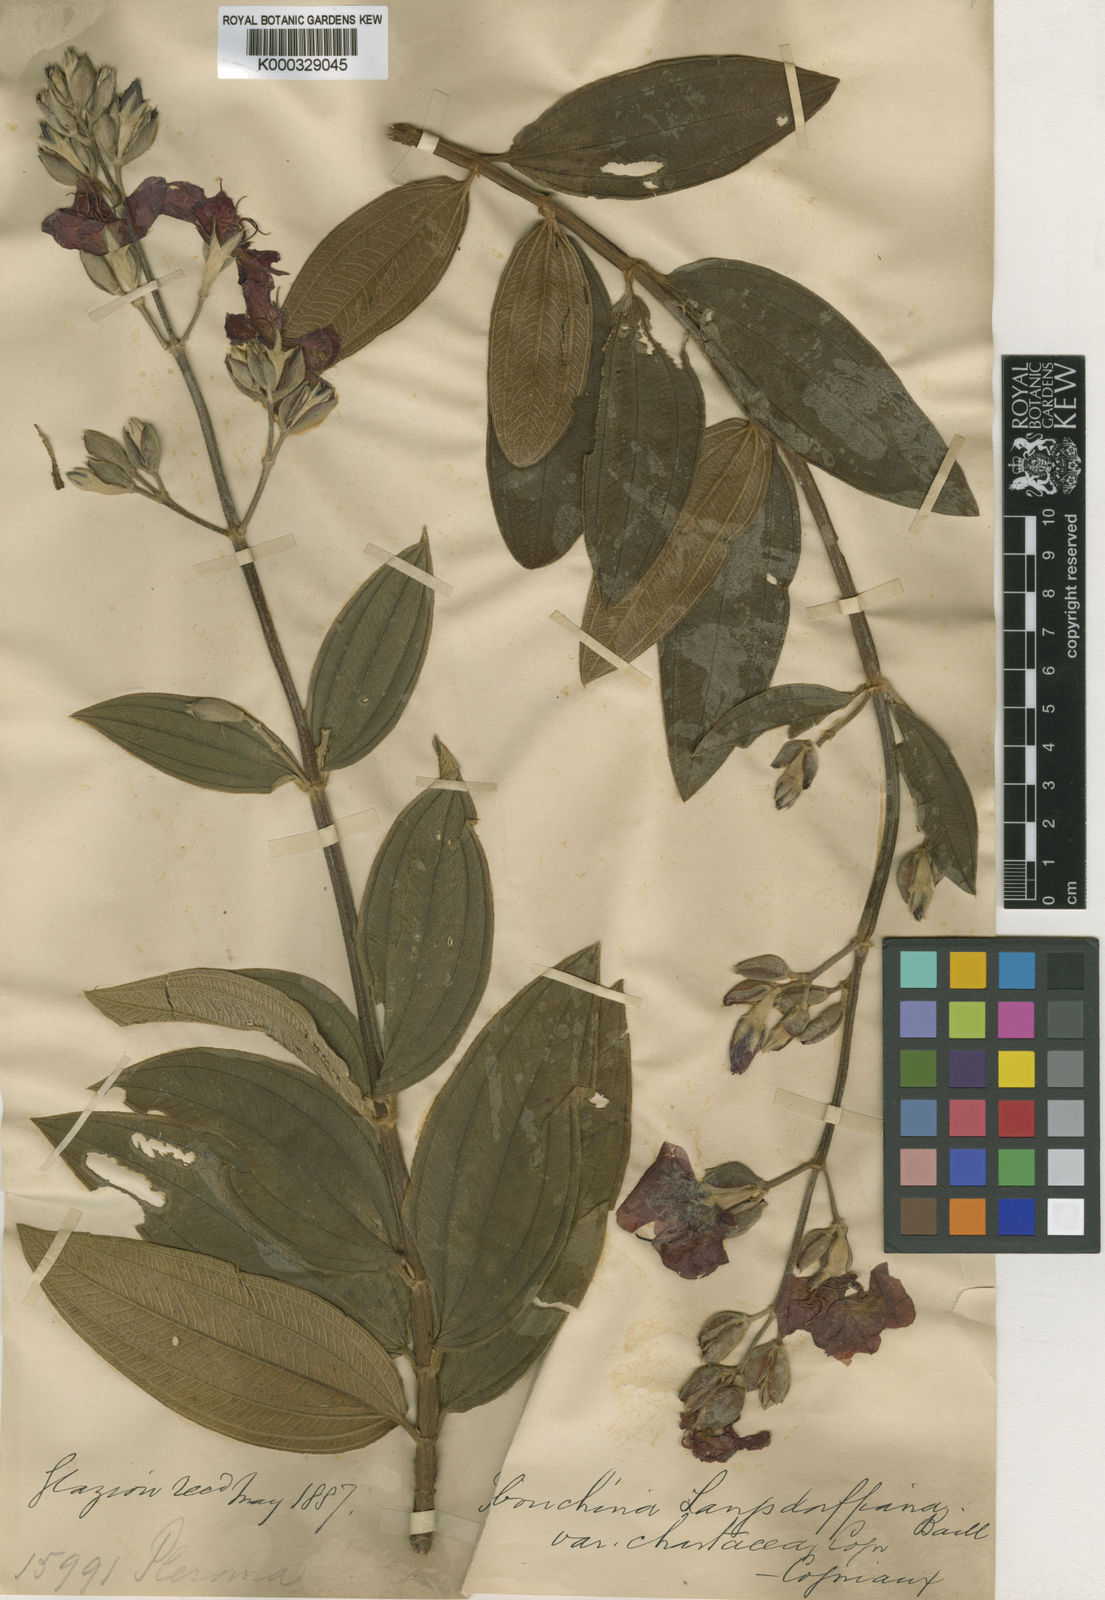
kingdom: Plantae
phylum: Tracheophyta
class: Magnoliopsida
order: Myrtales
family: Melastomataceae
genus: Pleroma
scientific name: Pleroma langsdorfianum
